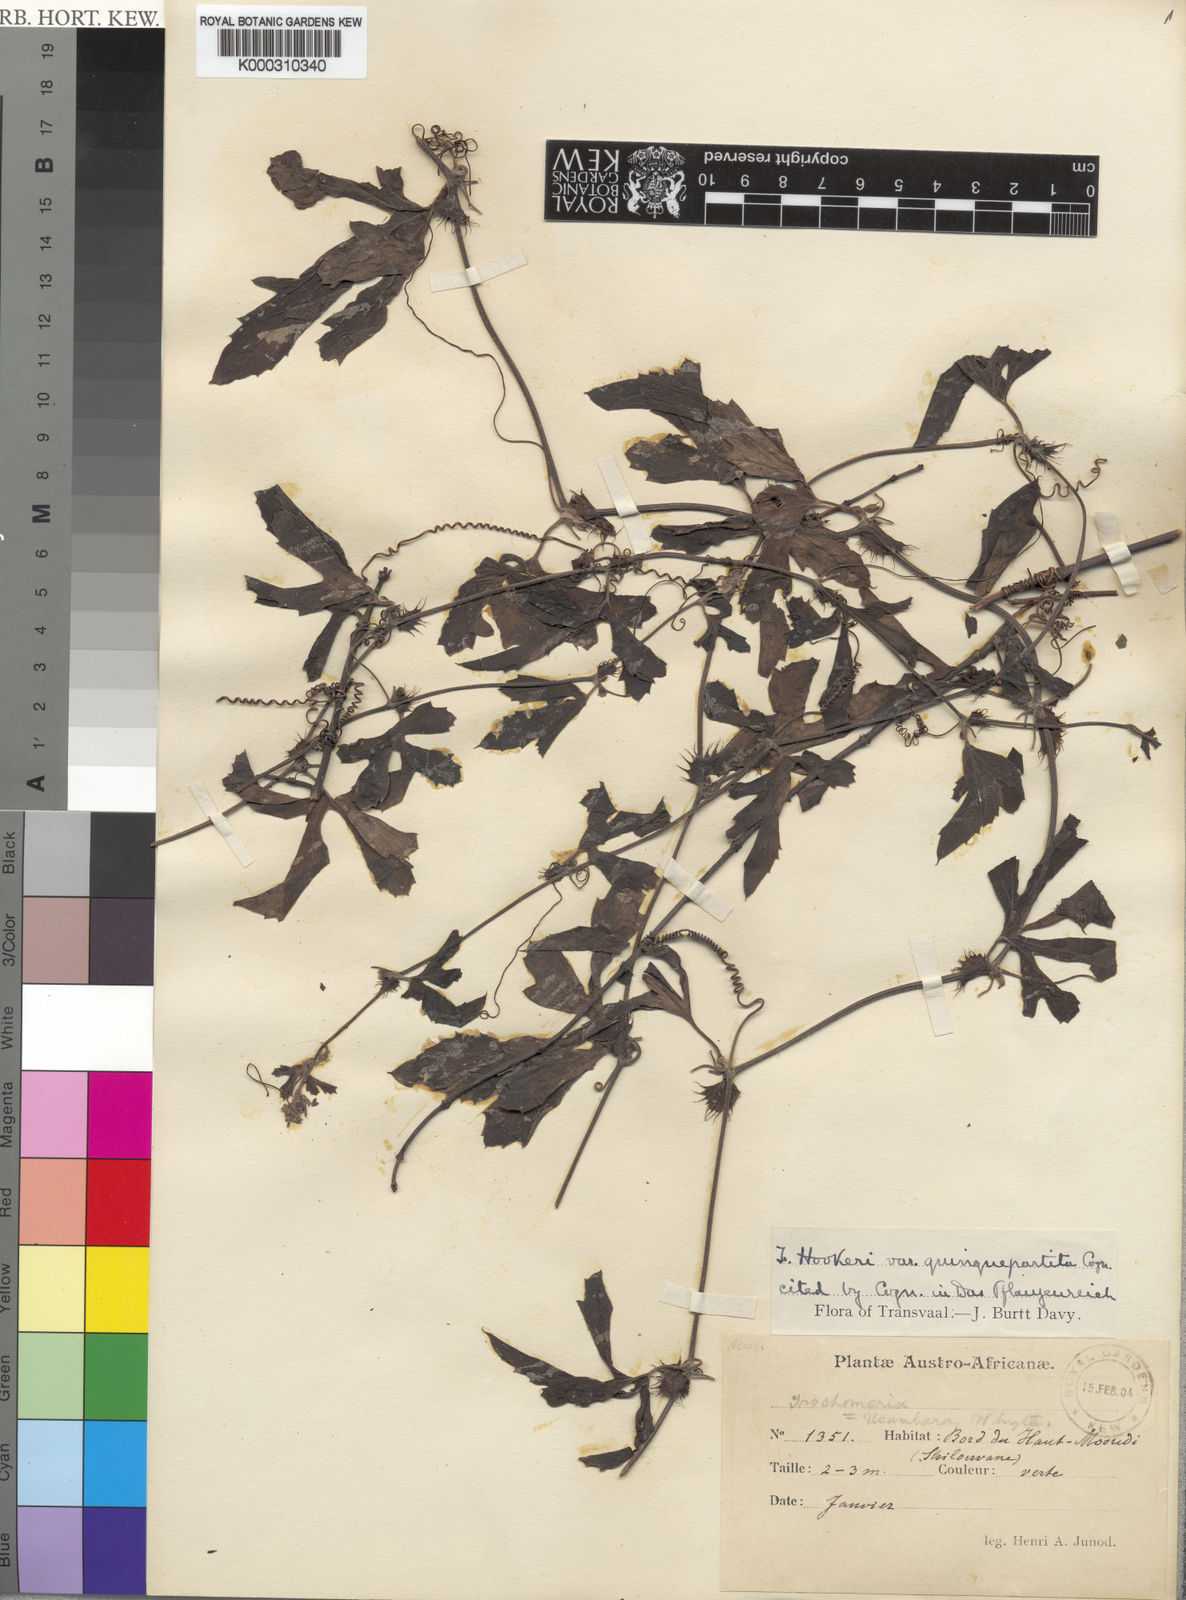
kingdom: Plantae
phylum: Tracheophyta
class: Magnoliopsida
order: Cucurbitales
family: Cucurbitaceae
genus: Trochomeria
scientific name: Trochomeria hookeri
